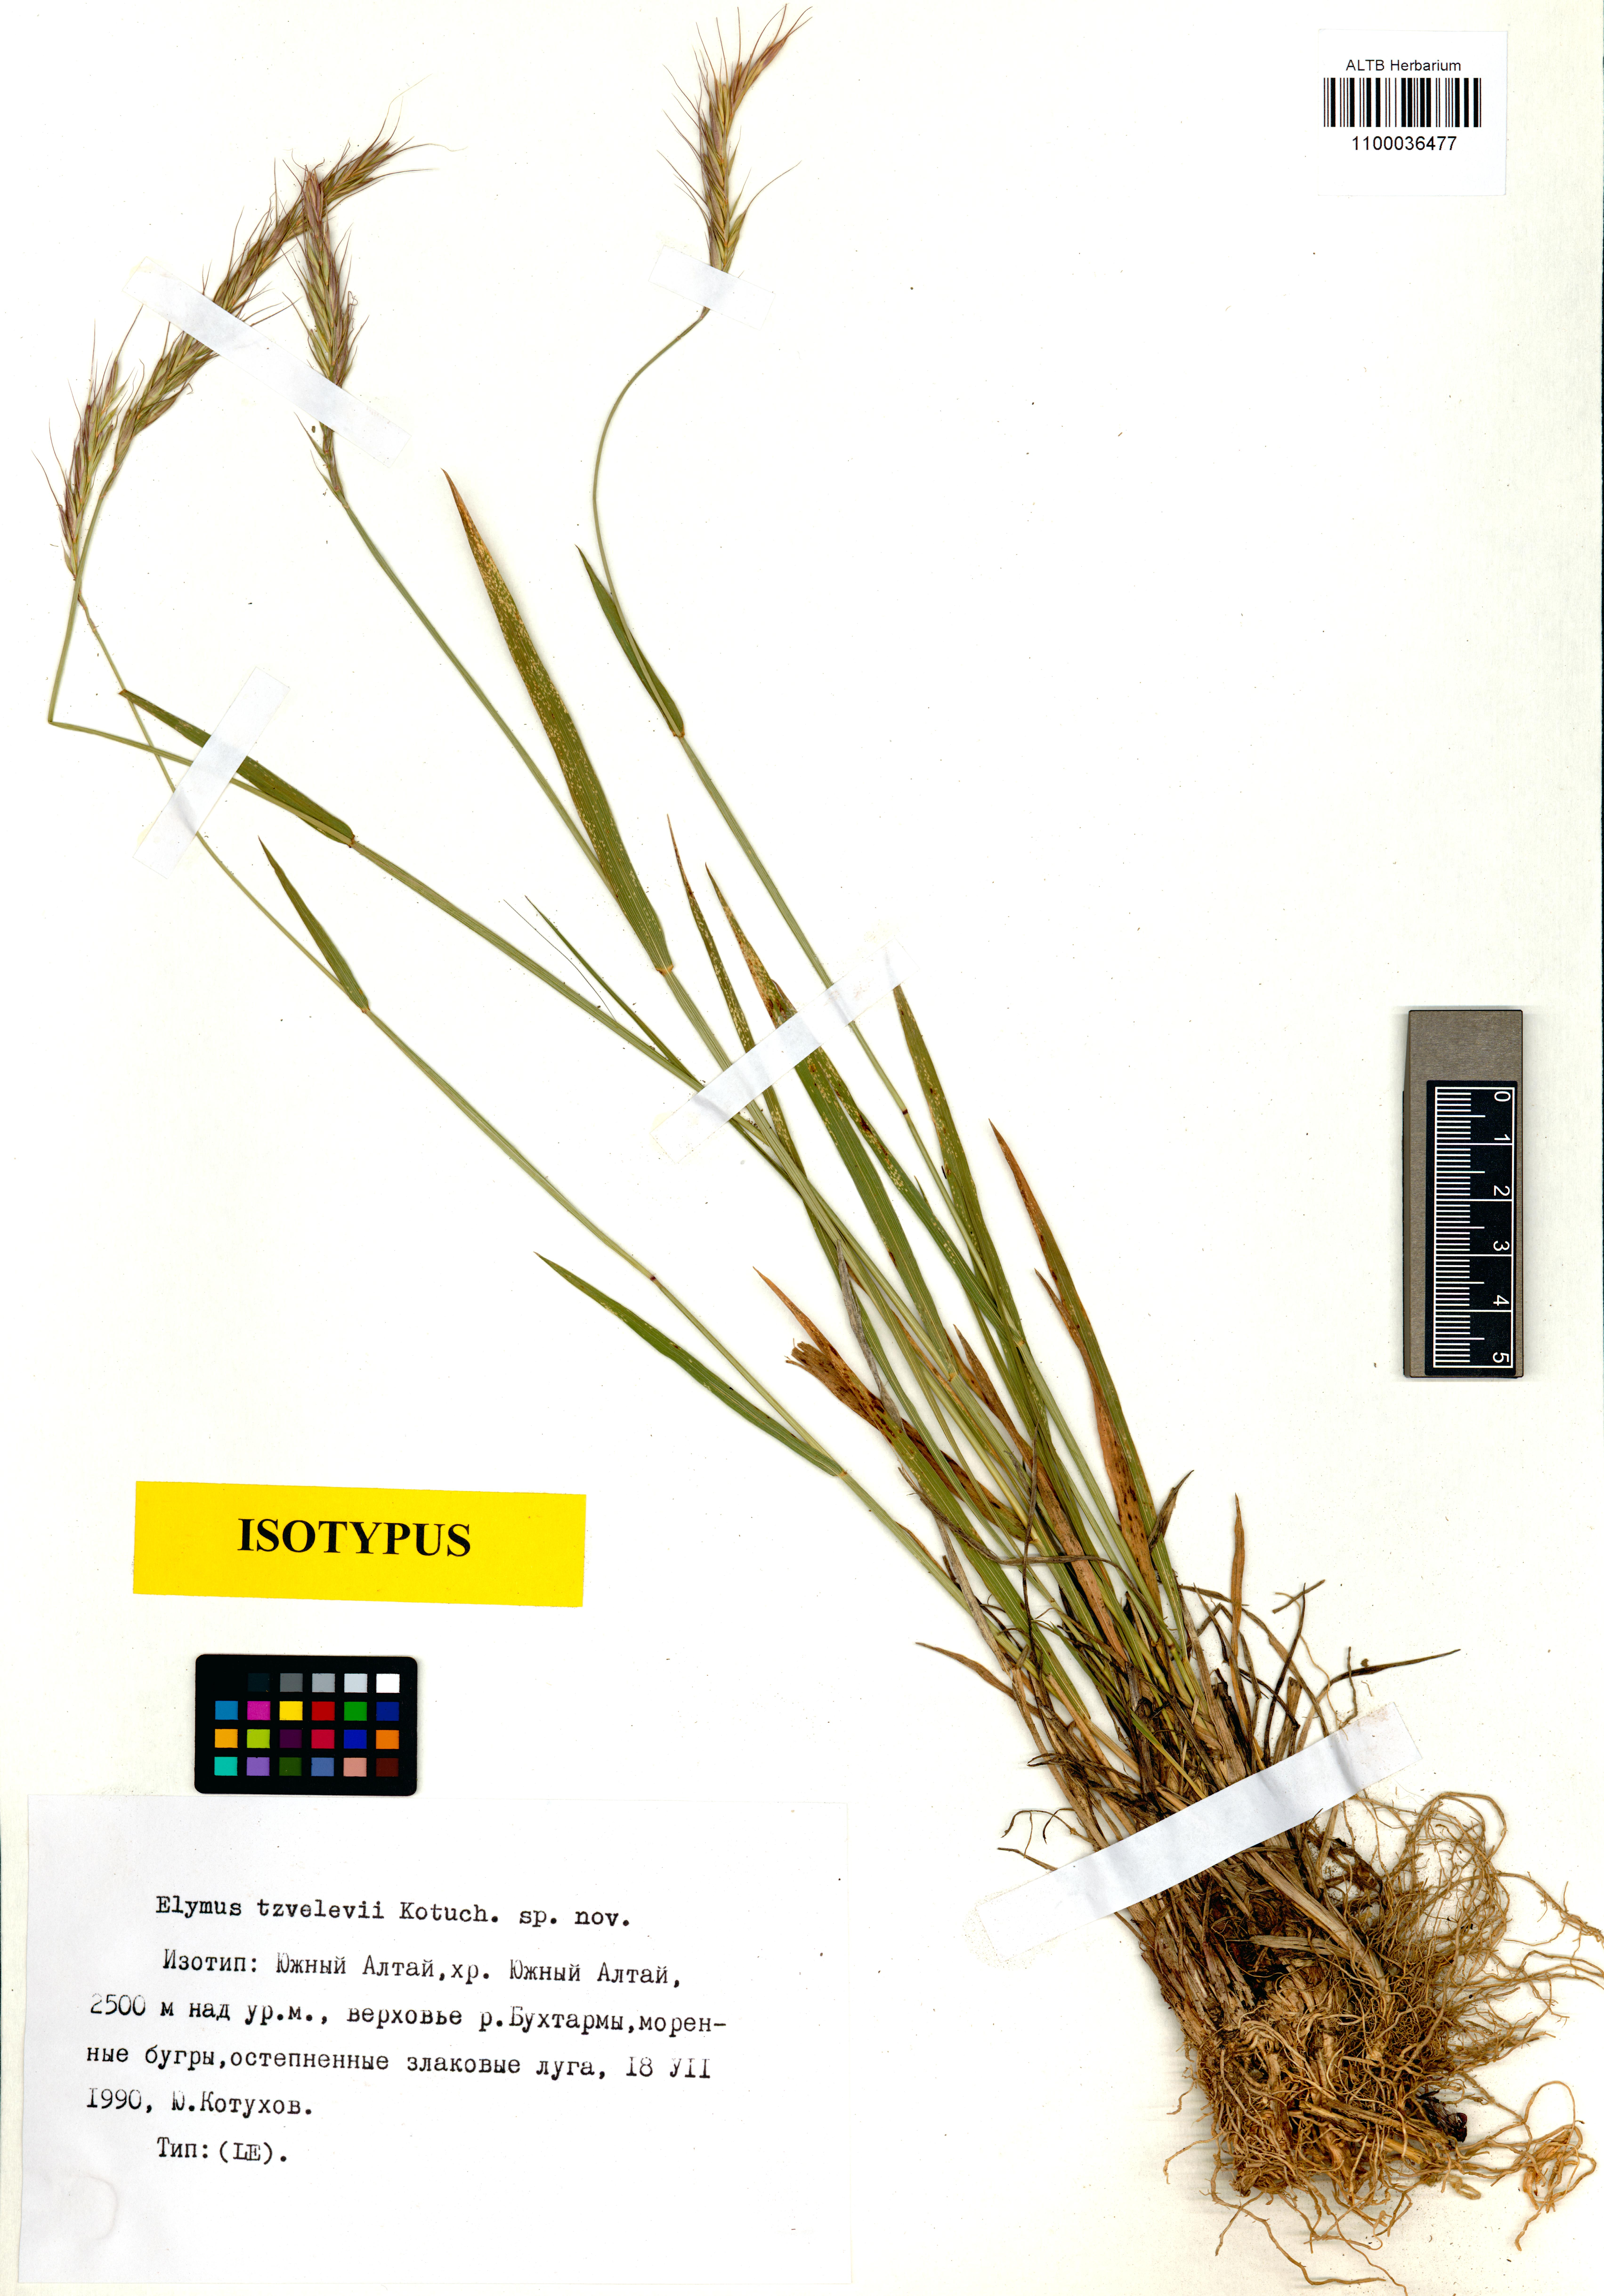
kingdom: Plantae
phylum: Tracheophyta
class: Liliopsida
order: Poales
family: Poaceae
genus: Campeiostachys
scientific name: Campeiostachys schrenkiana
